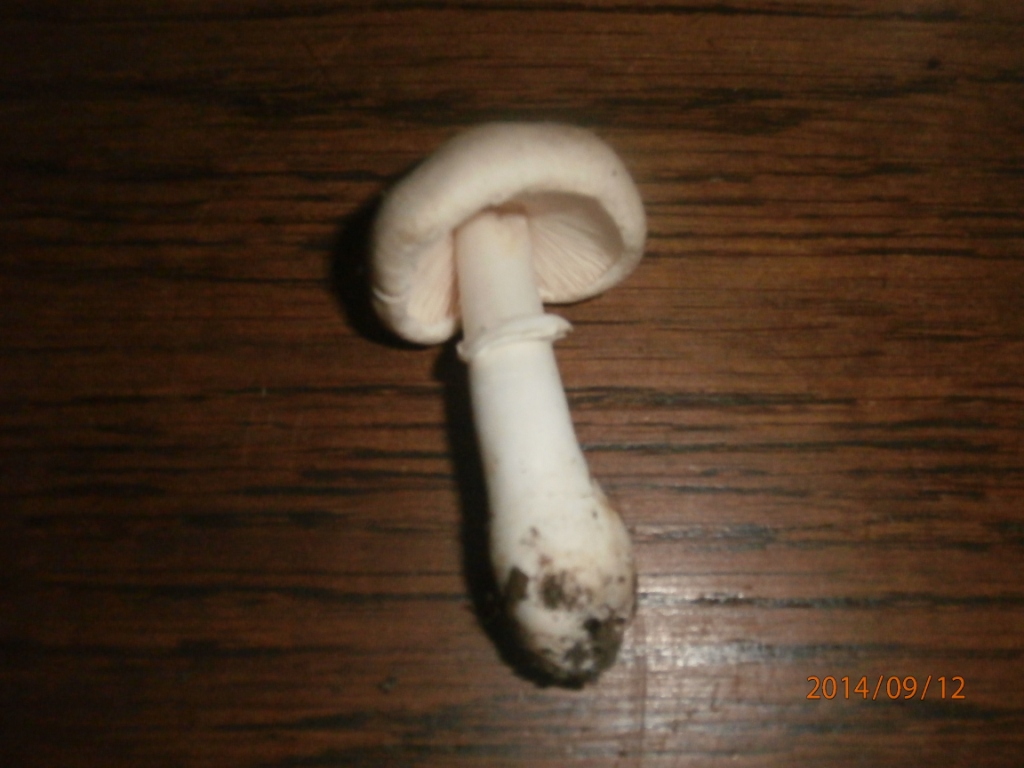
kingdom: Fungi
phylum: Basidiomycota
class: Agaricomycetes
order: Agaricales
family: Agaricaceae
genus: Leucoagaricus
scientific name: Leucoagaricus leucothites
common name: rosabladet silkehat
